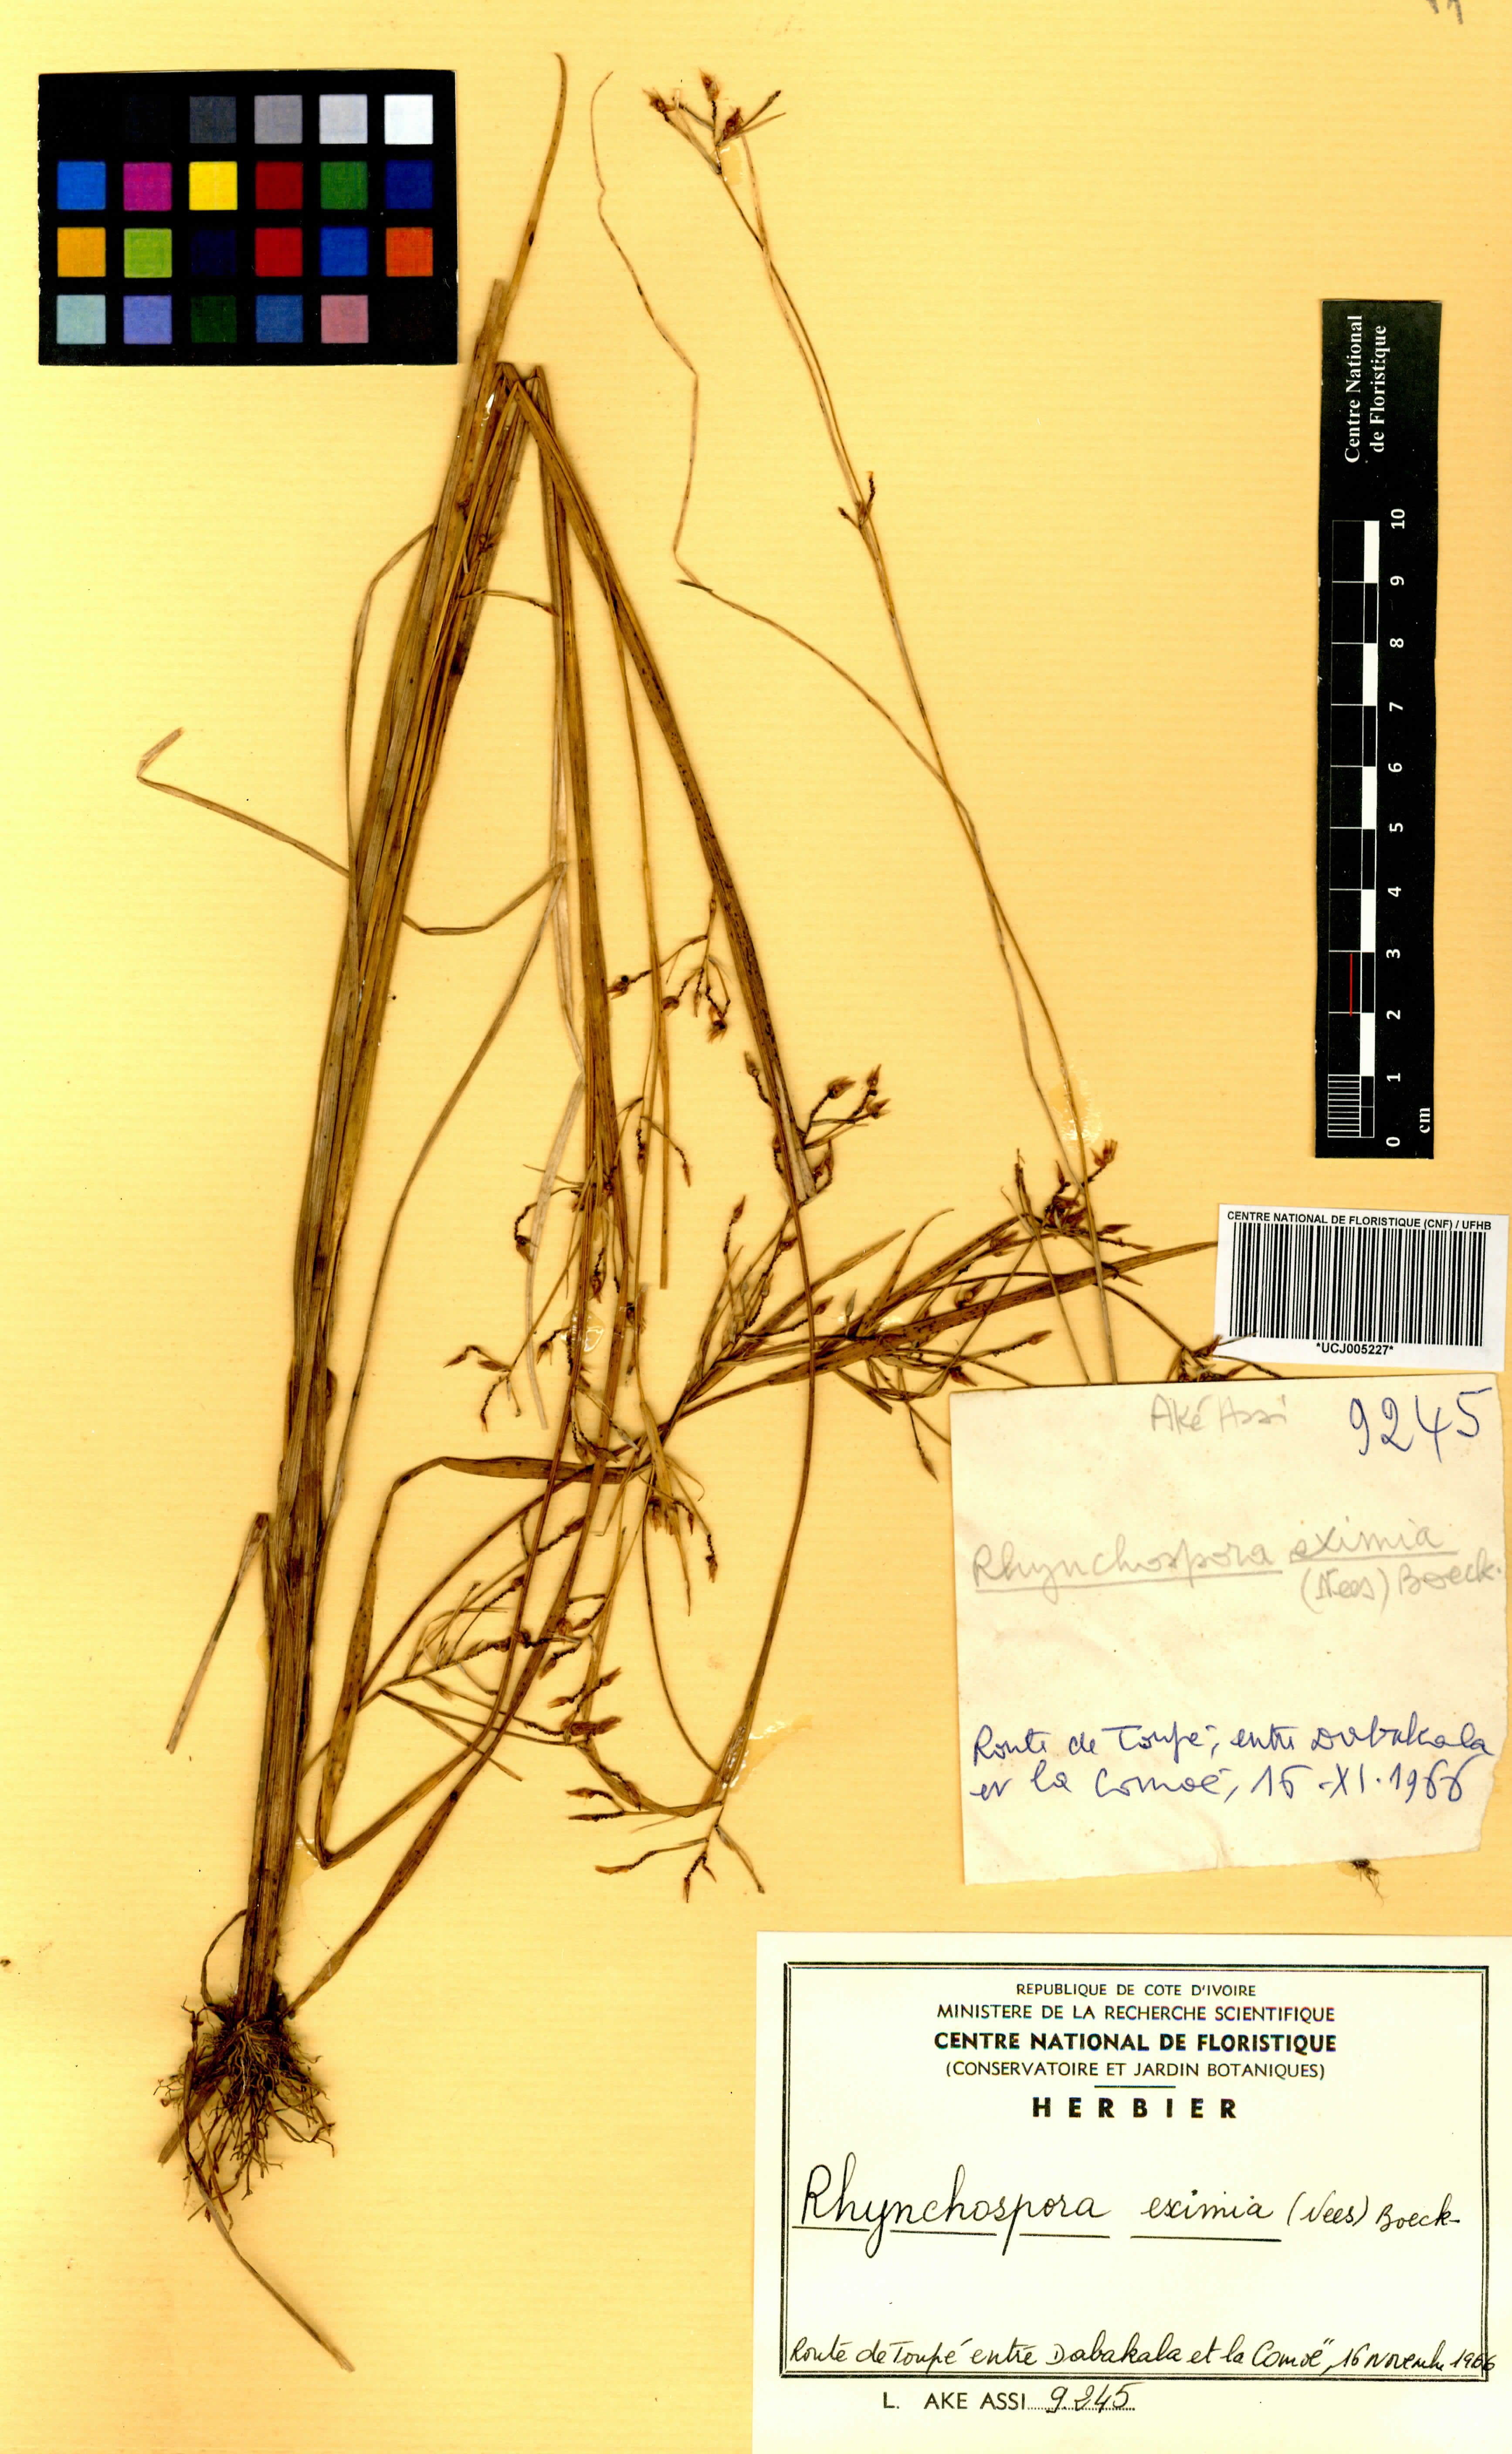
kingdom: Plantae
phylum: Tracheophyta
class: Liliopsida
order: Poales
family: Cyperaceae
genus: Rhynchospora
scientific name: Rhynchospora eximia
